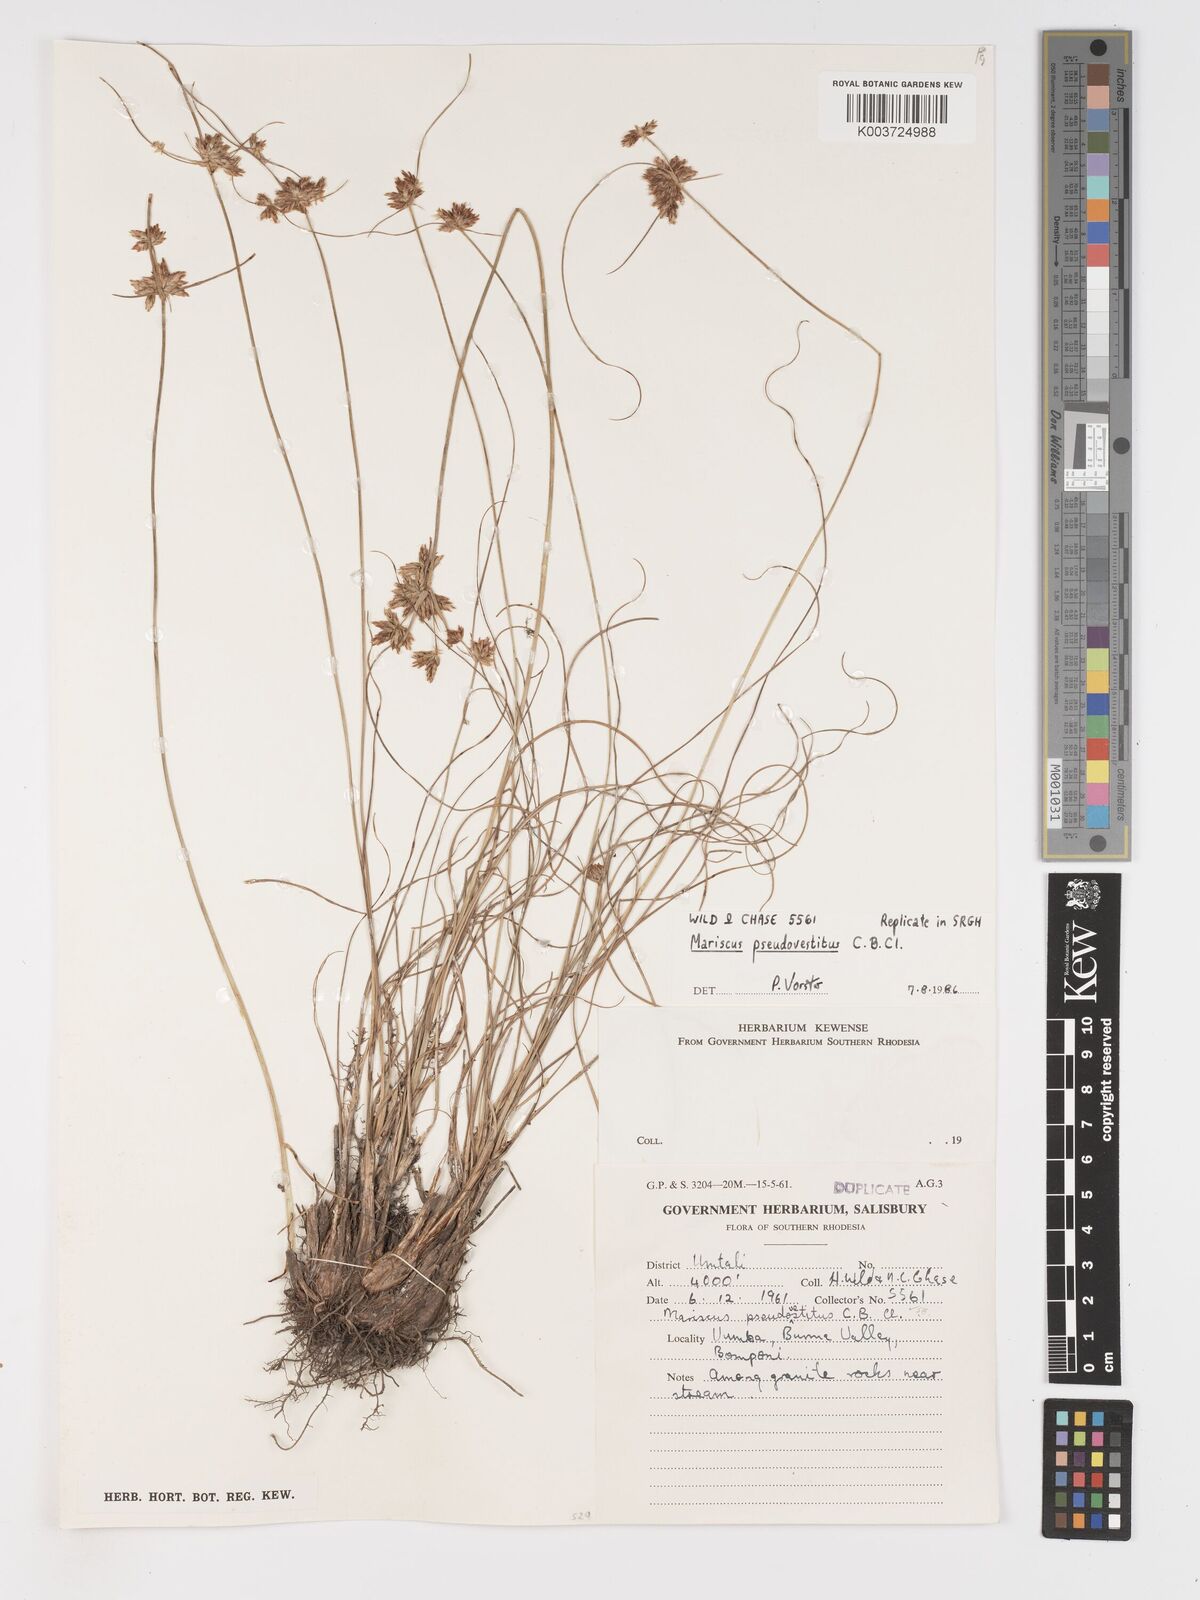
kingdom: Plantae
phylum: Tracheophyta
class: Liliopsida
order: Poales
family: Cyperaceae
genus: Cyperus
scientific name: Cyperus pseudovestitus
